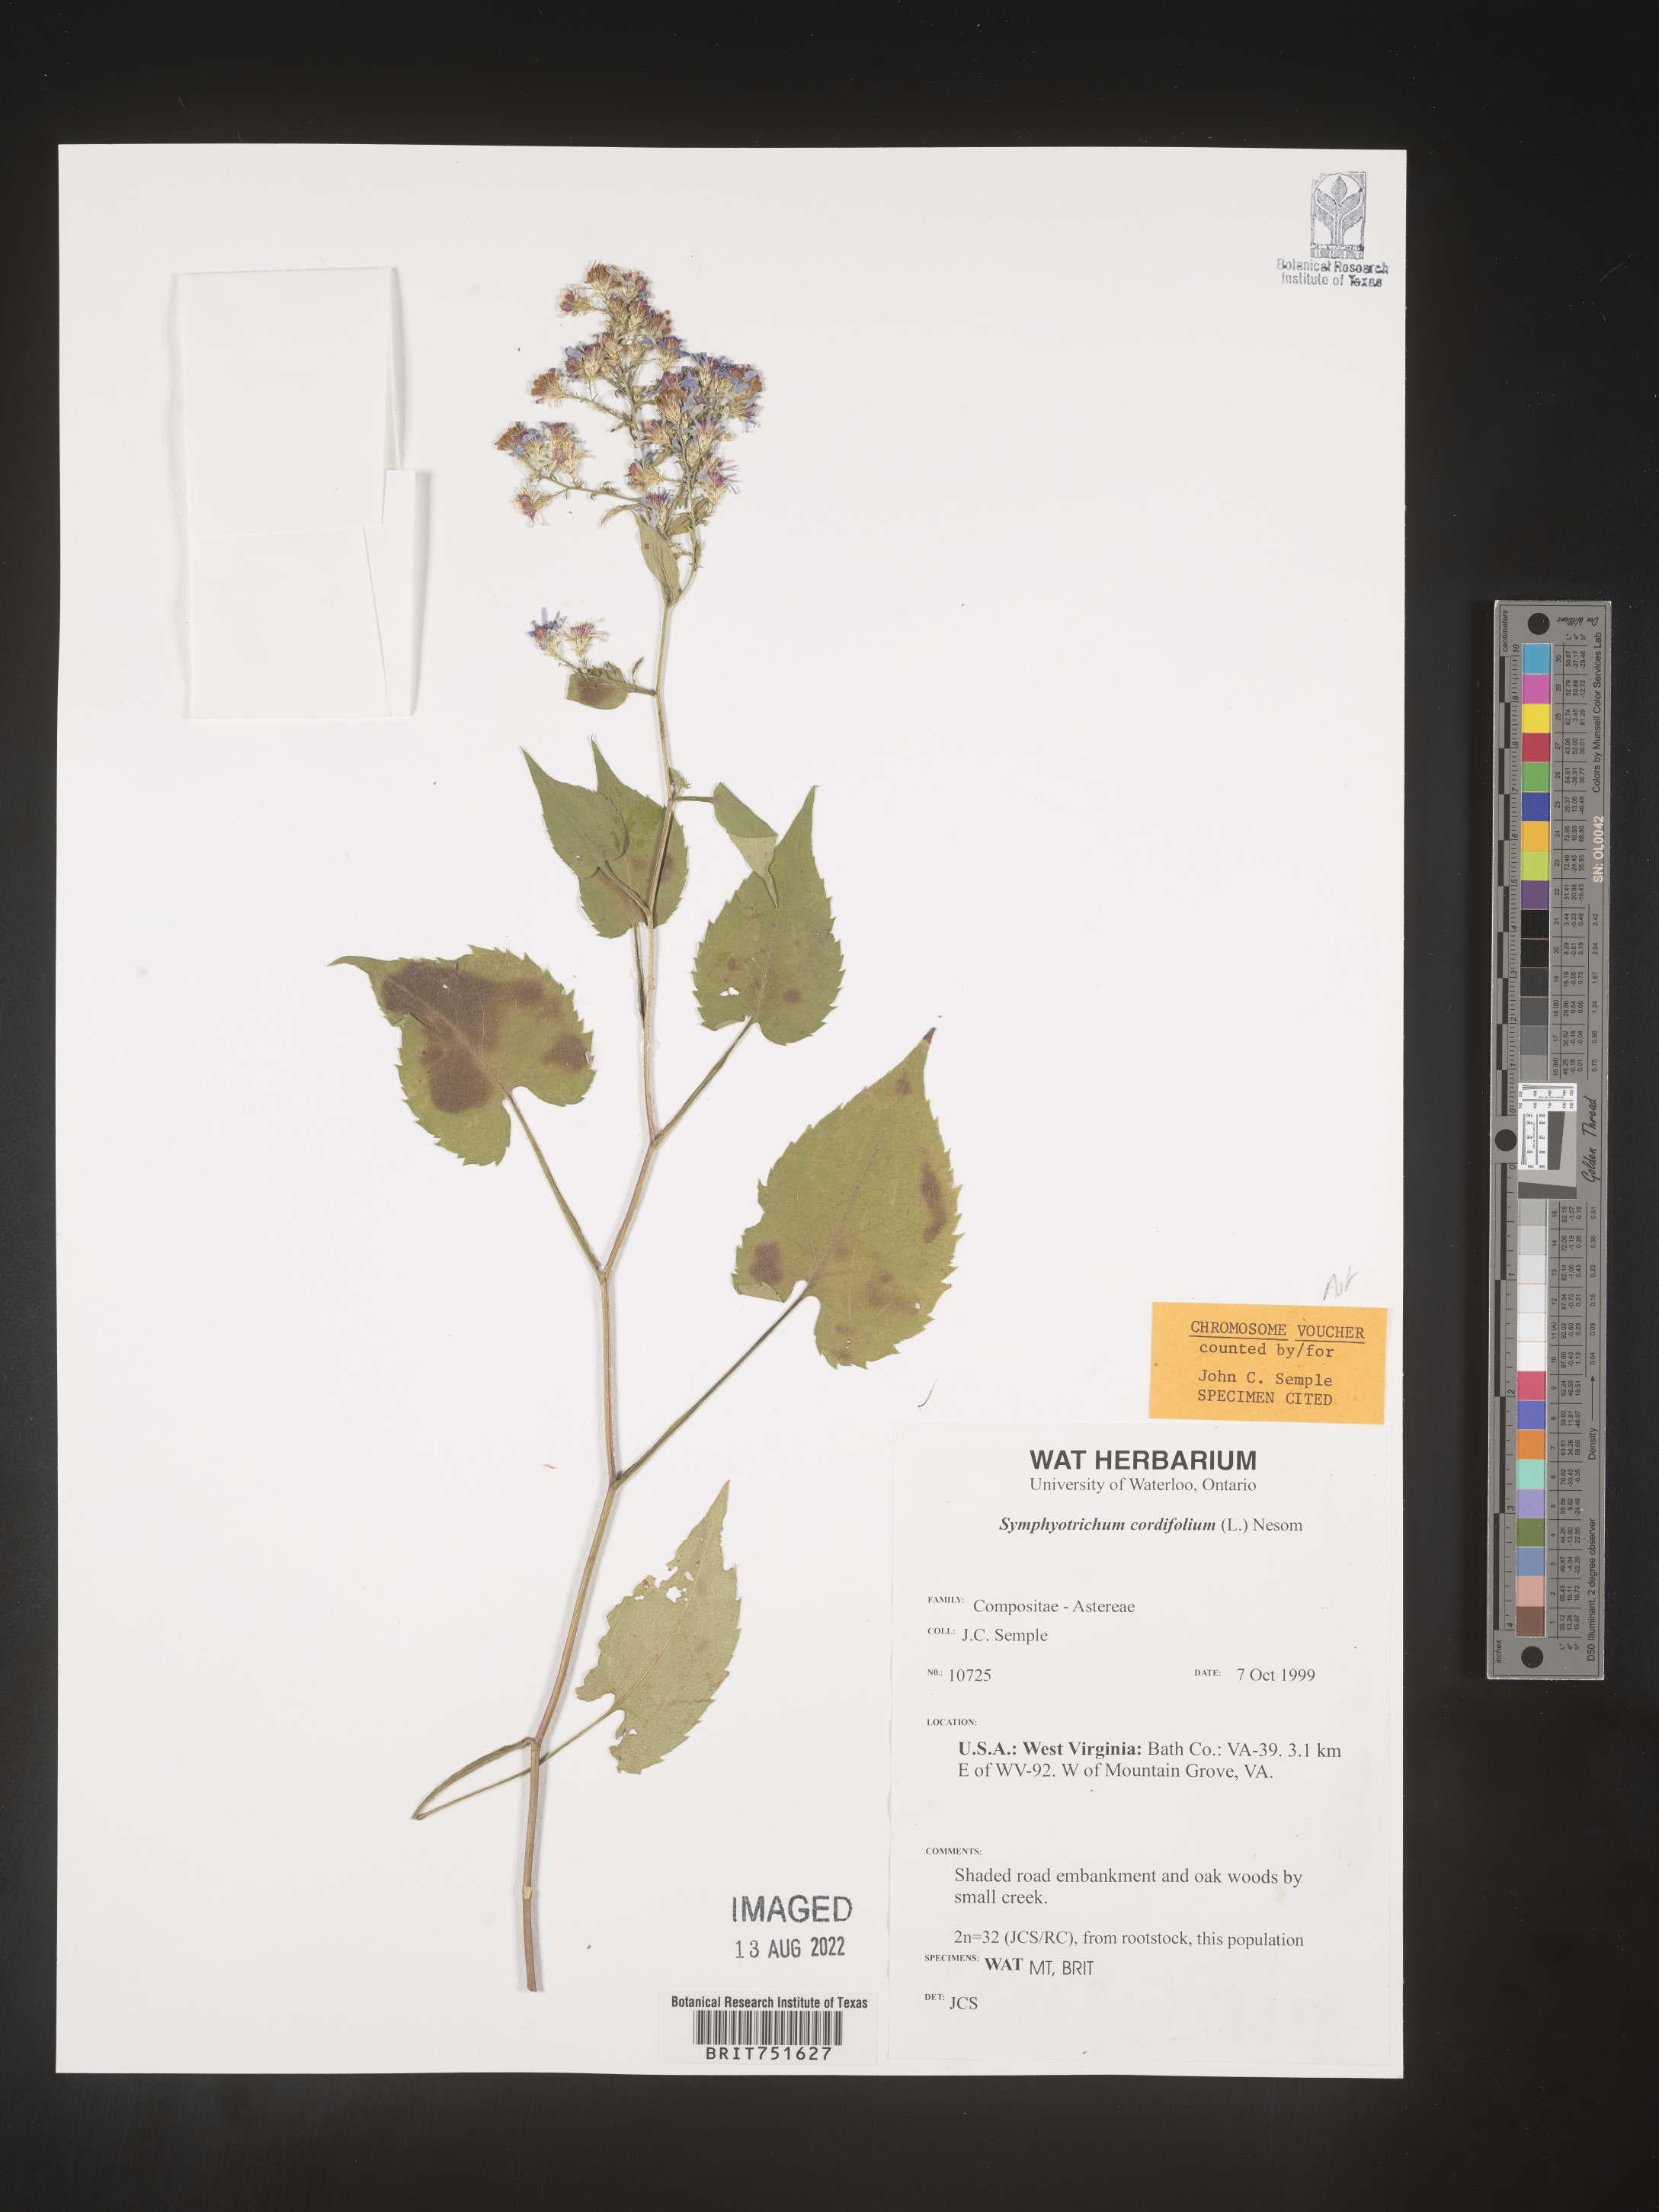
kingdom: Plantae
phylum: Tracheophyta
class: Magnoliopsida
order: Asterales
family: Asteraceae
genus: Symphyotrichum
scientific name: Symphyotrichum cordifolium
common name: Beeweed
